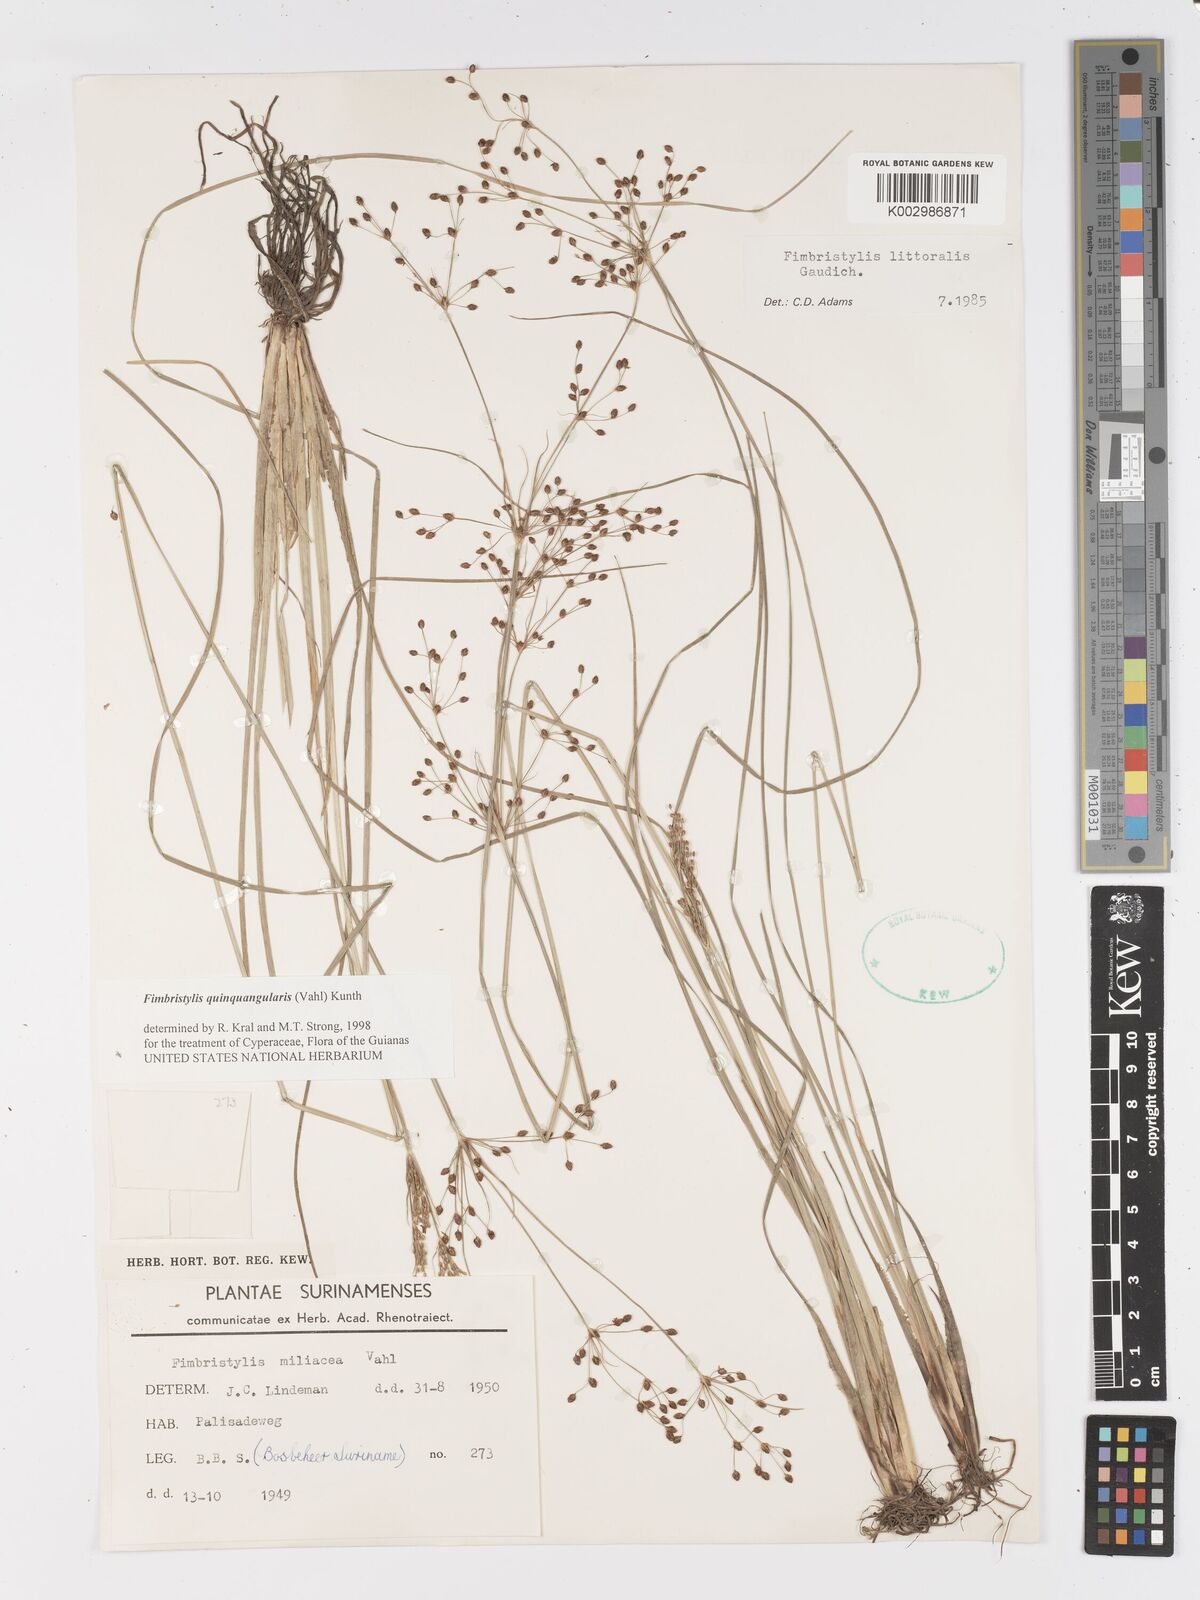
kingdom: Plantae
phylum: Tracheophyta
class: Liliopsida
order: Poales
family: Cyperaceae
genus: Fimbristylis
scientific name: Fimbristylis quinquangularis
